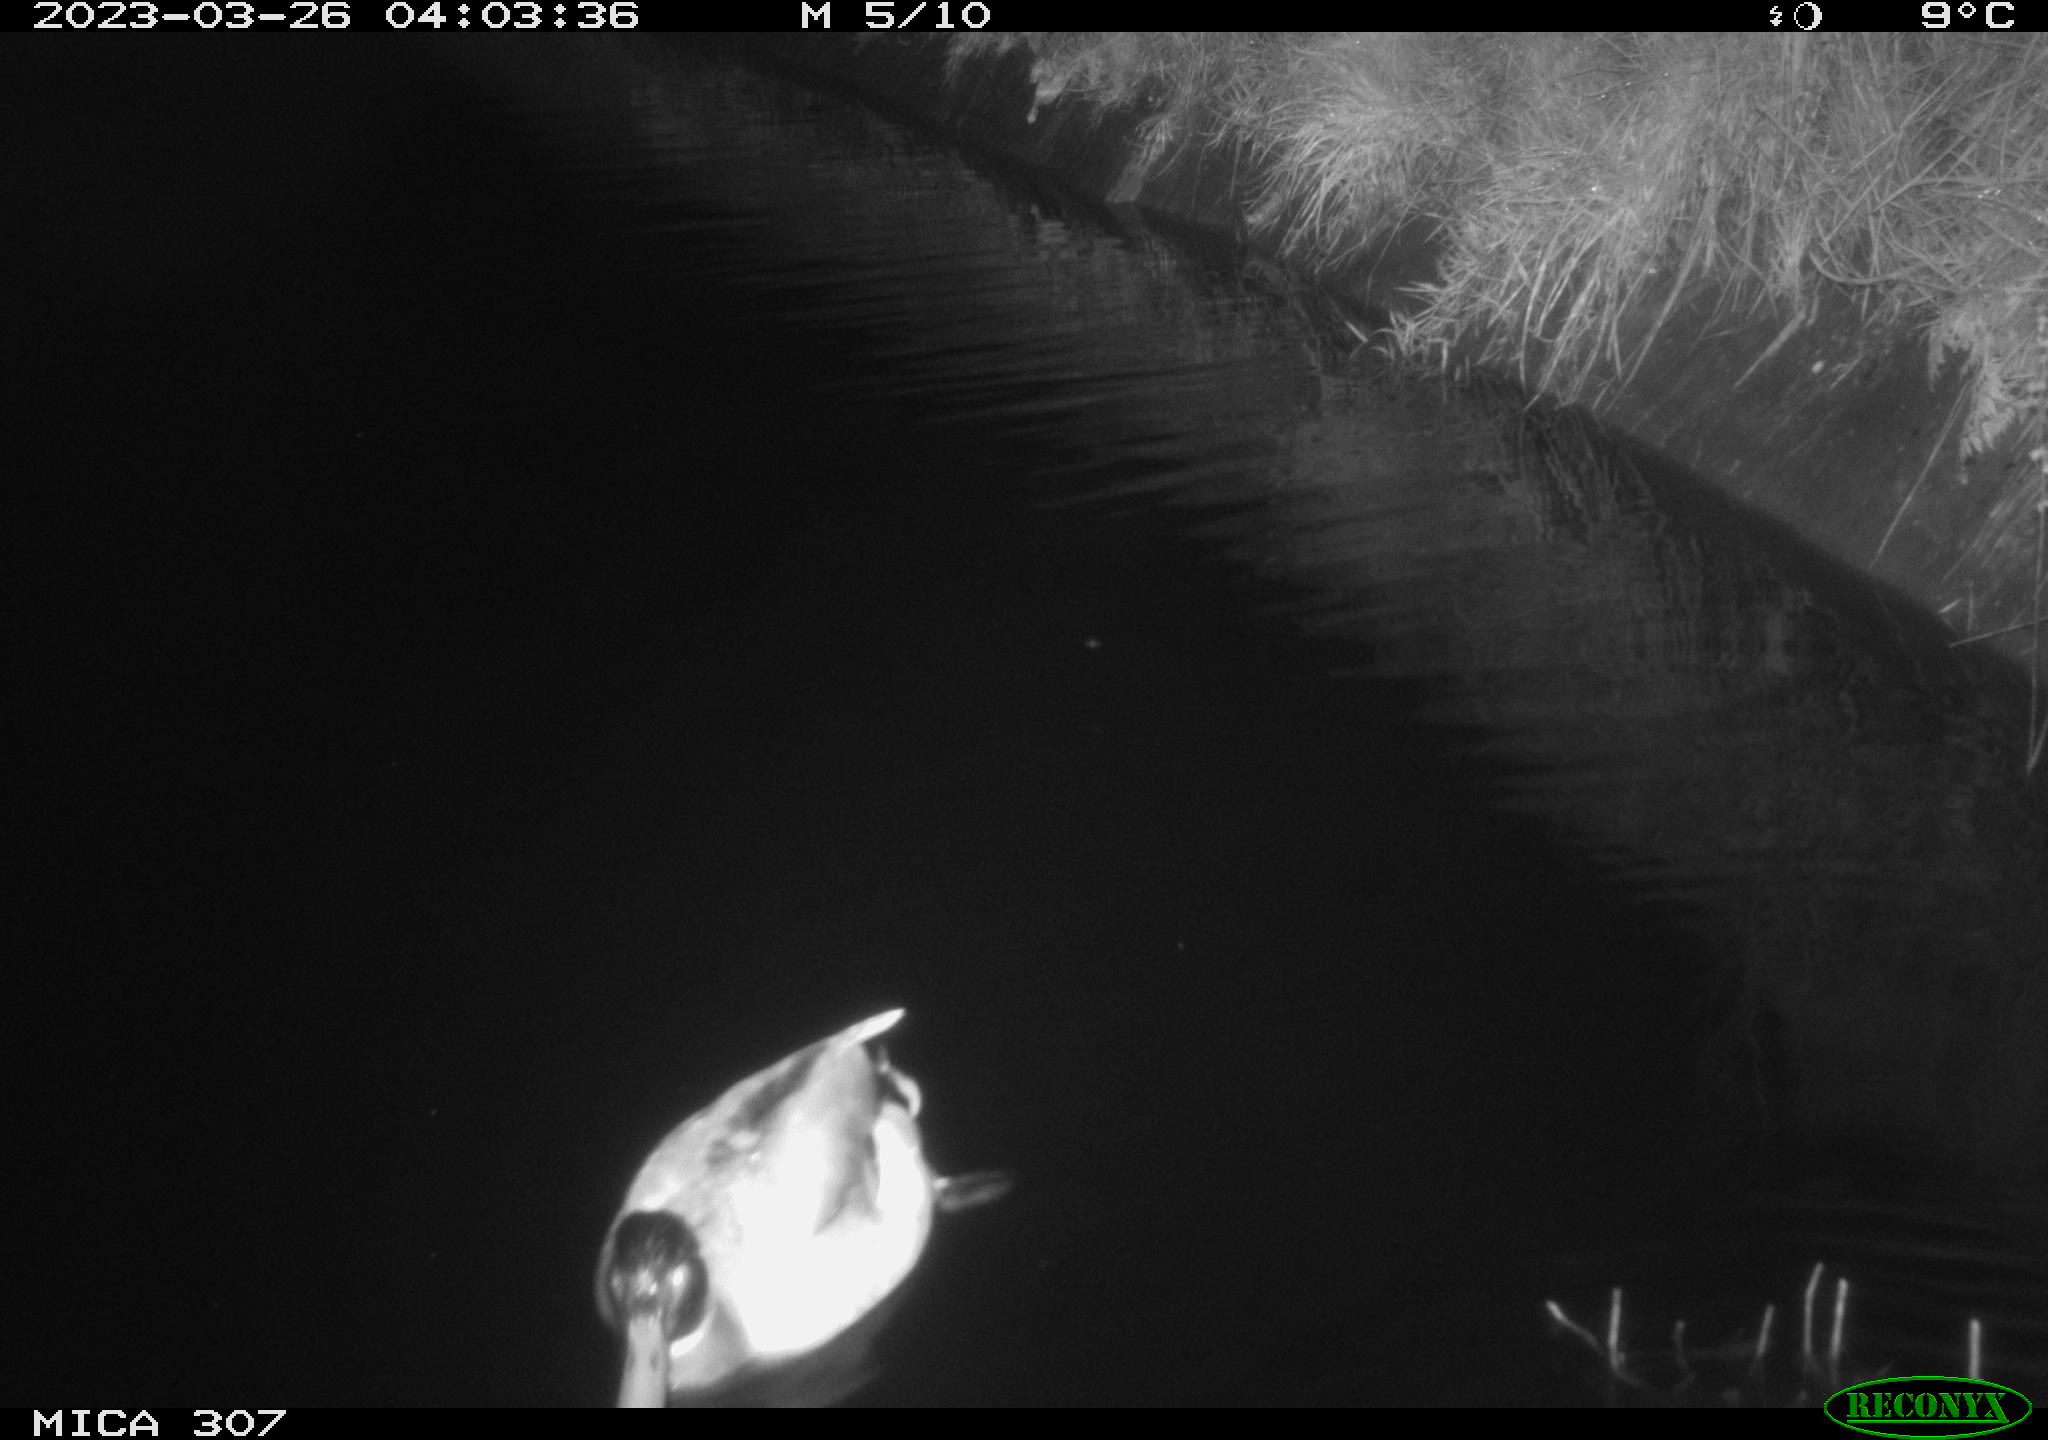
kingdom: Animalia
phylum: Chordata
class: Mammalia
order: Rodentia
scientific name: Rodentia
